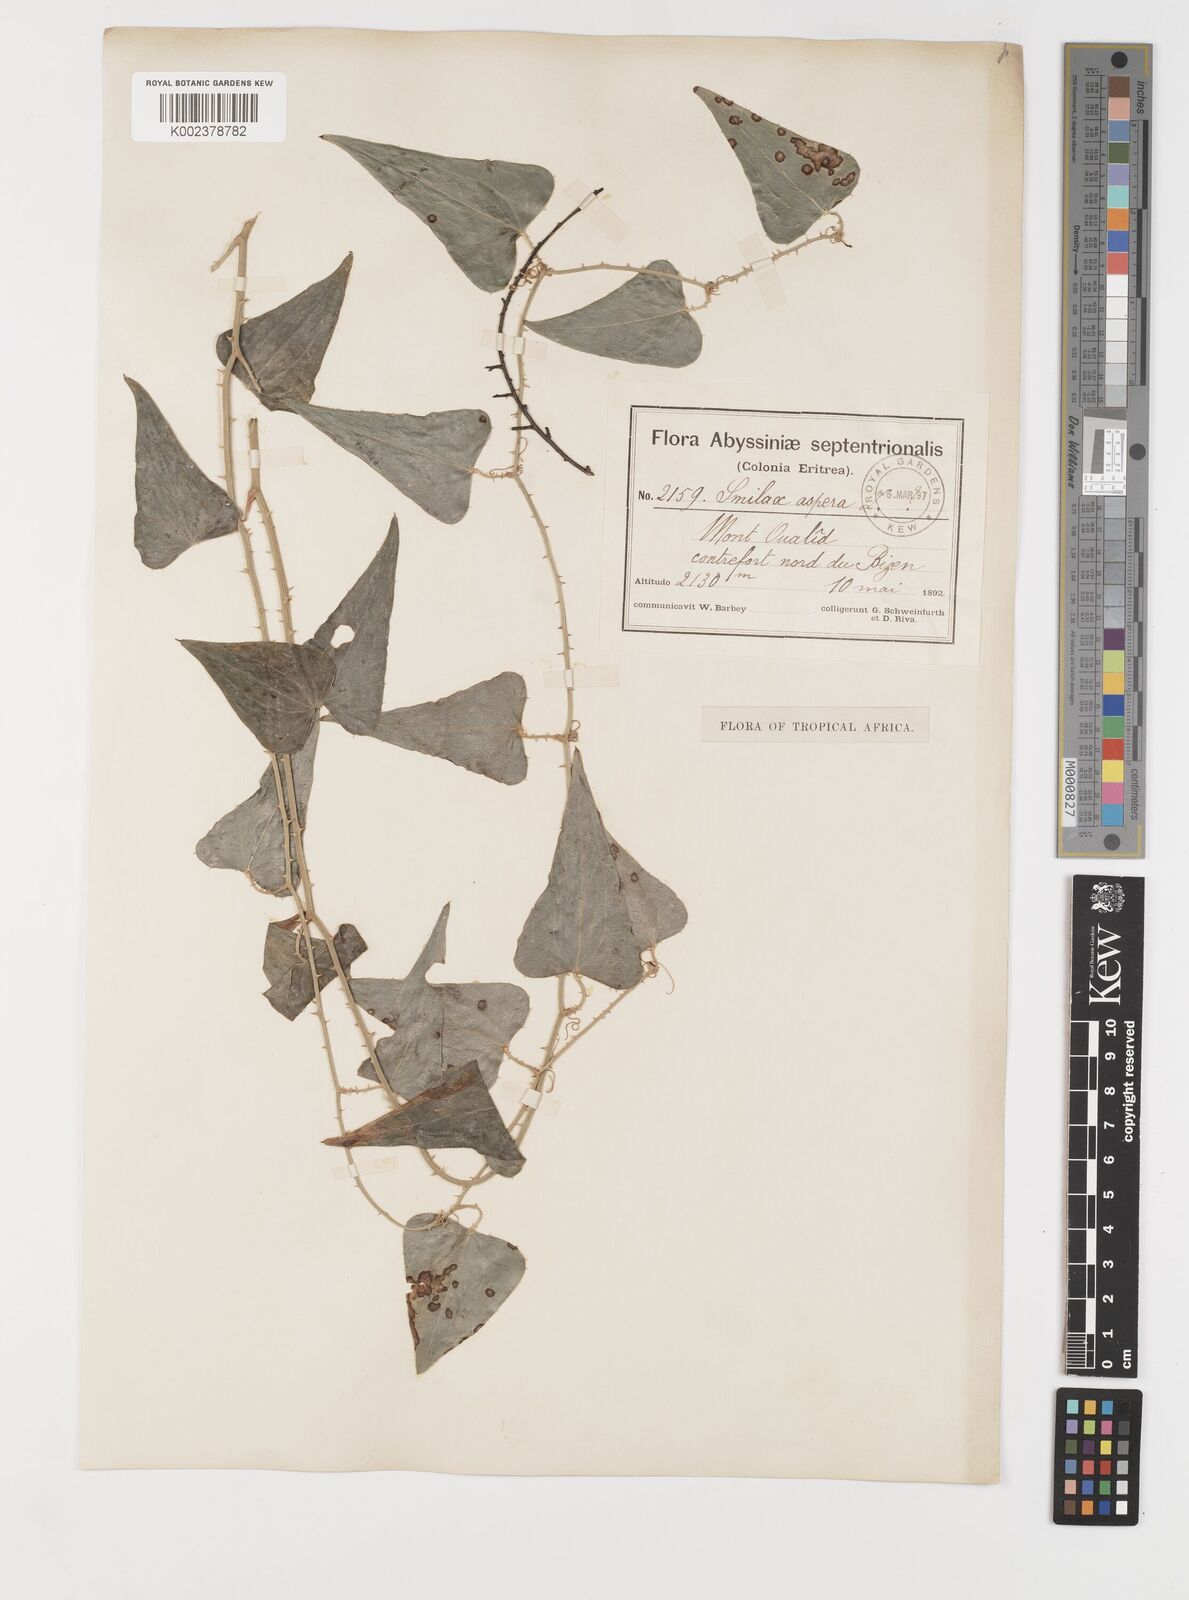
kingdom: Plantae
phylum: Tracheophyta
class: Liliopsida
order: Liliales
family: Smilacaceae
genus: Smilax
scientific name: Smilax aspera
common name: Common smilax
